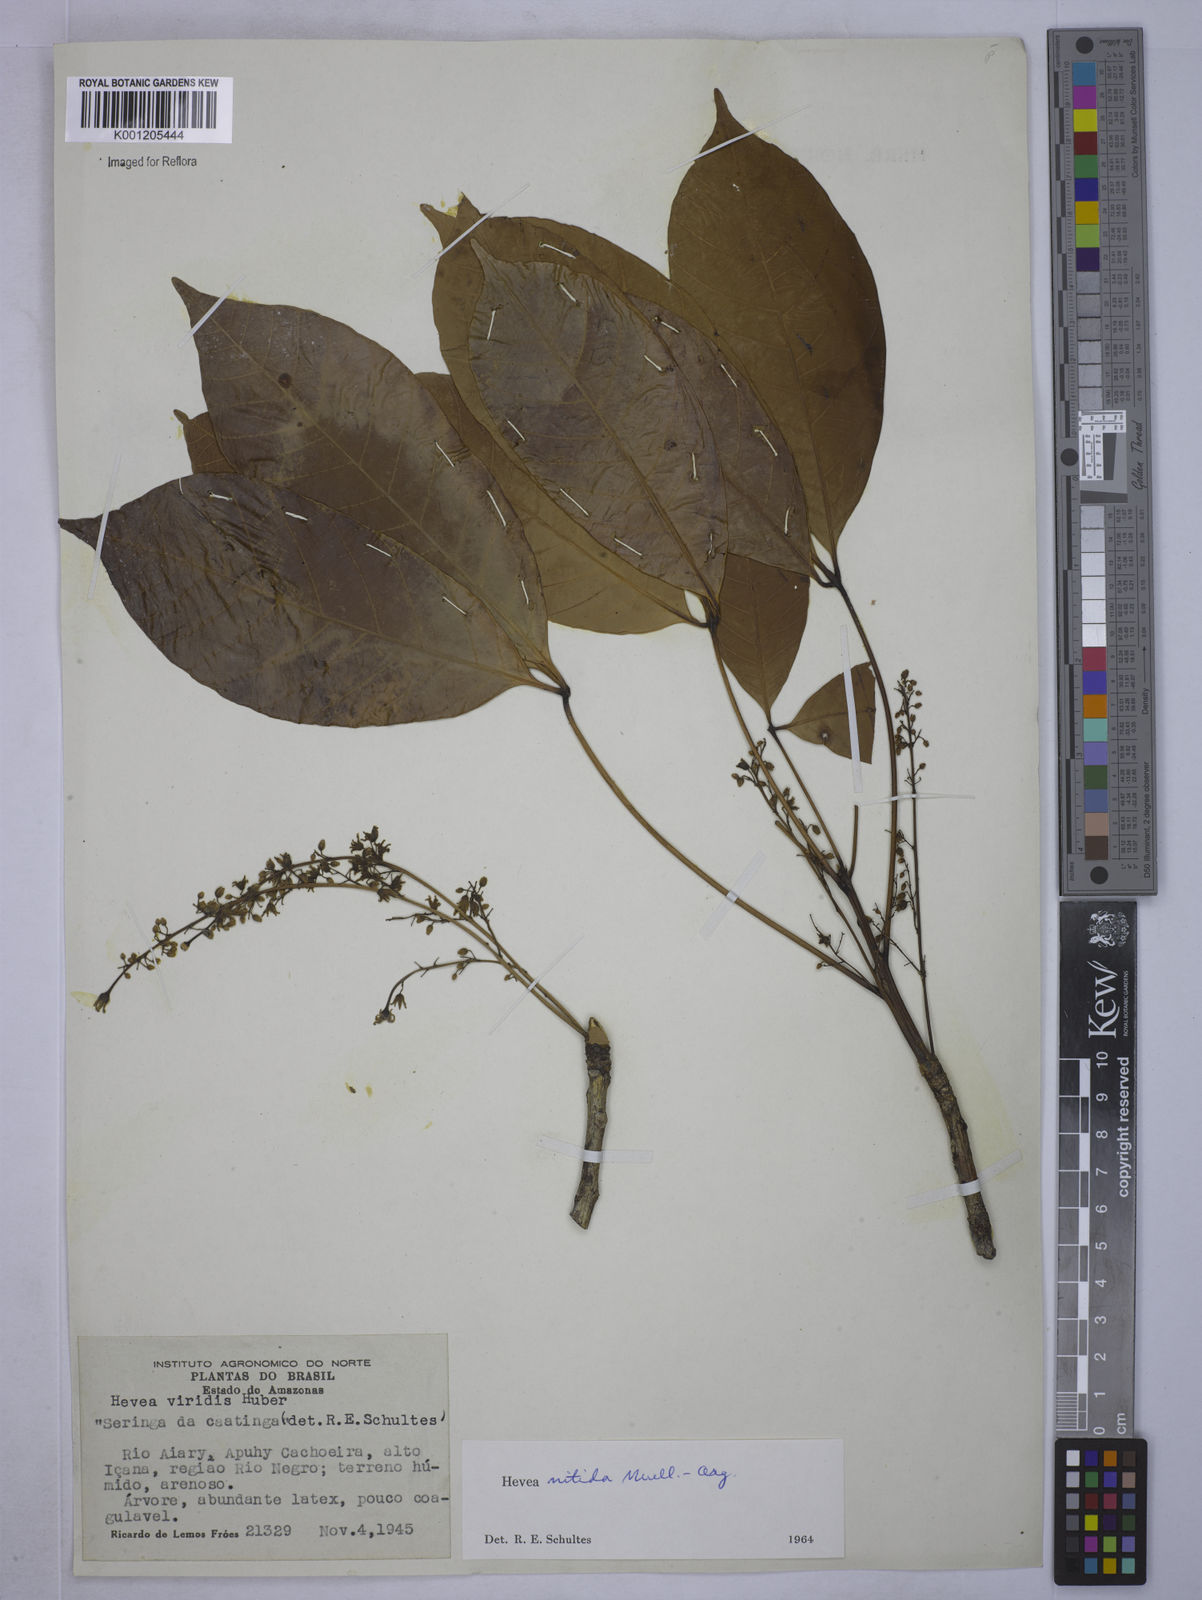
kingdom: Plantae
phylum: Tracheophyta
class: Magnoliopsida
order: Malpighiales
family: Euphorbiaceae
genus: Hevea
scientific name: Hevea
